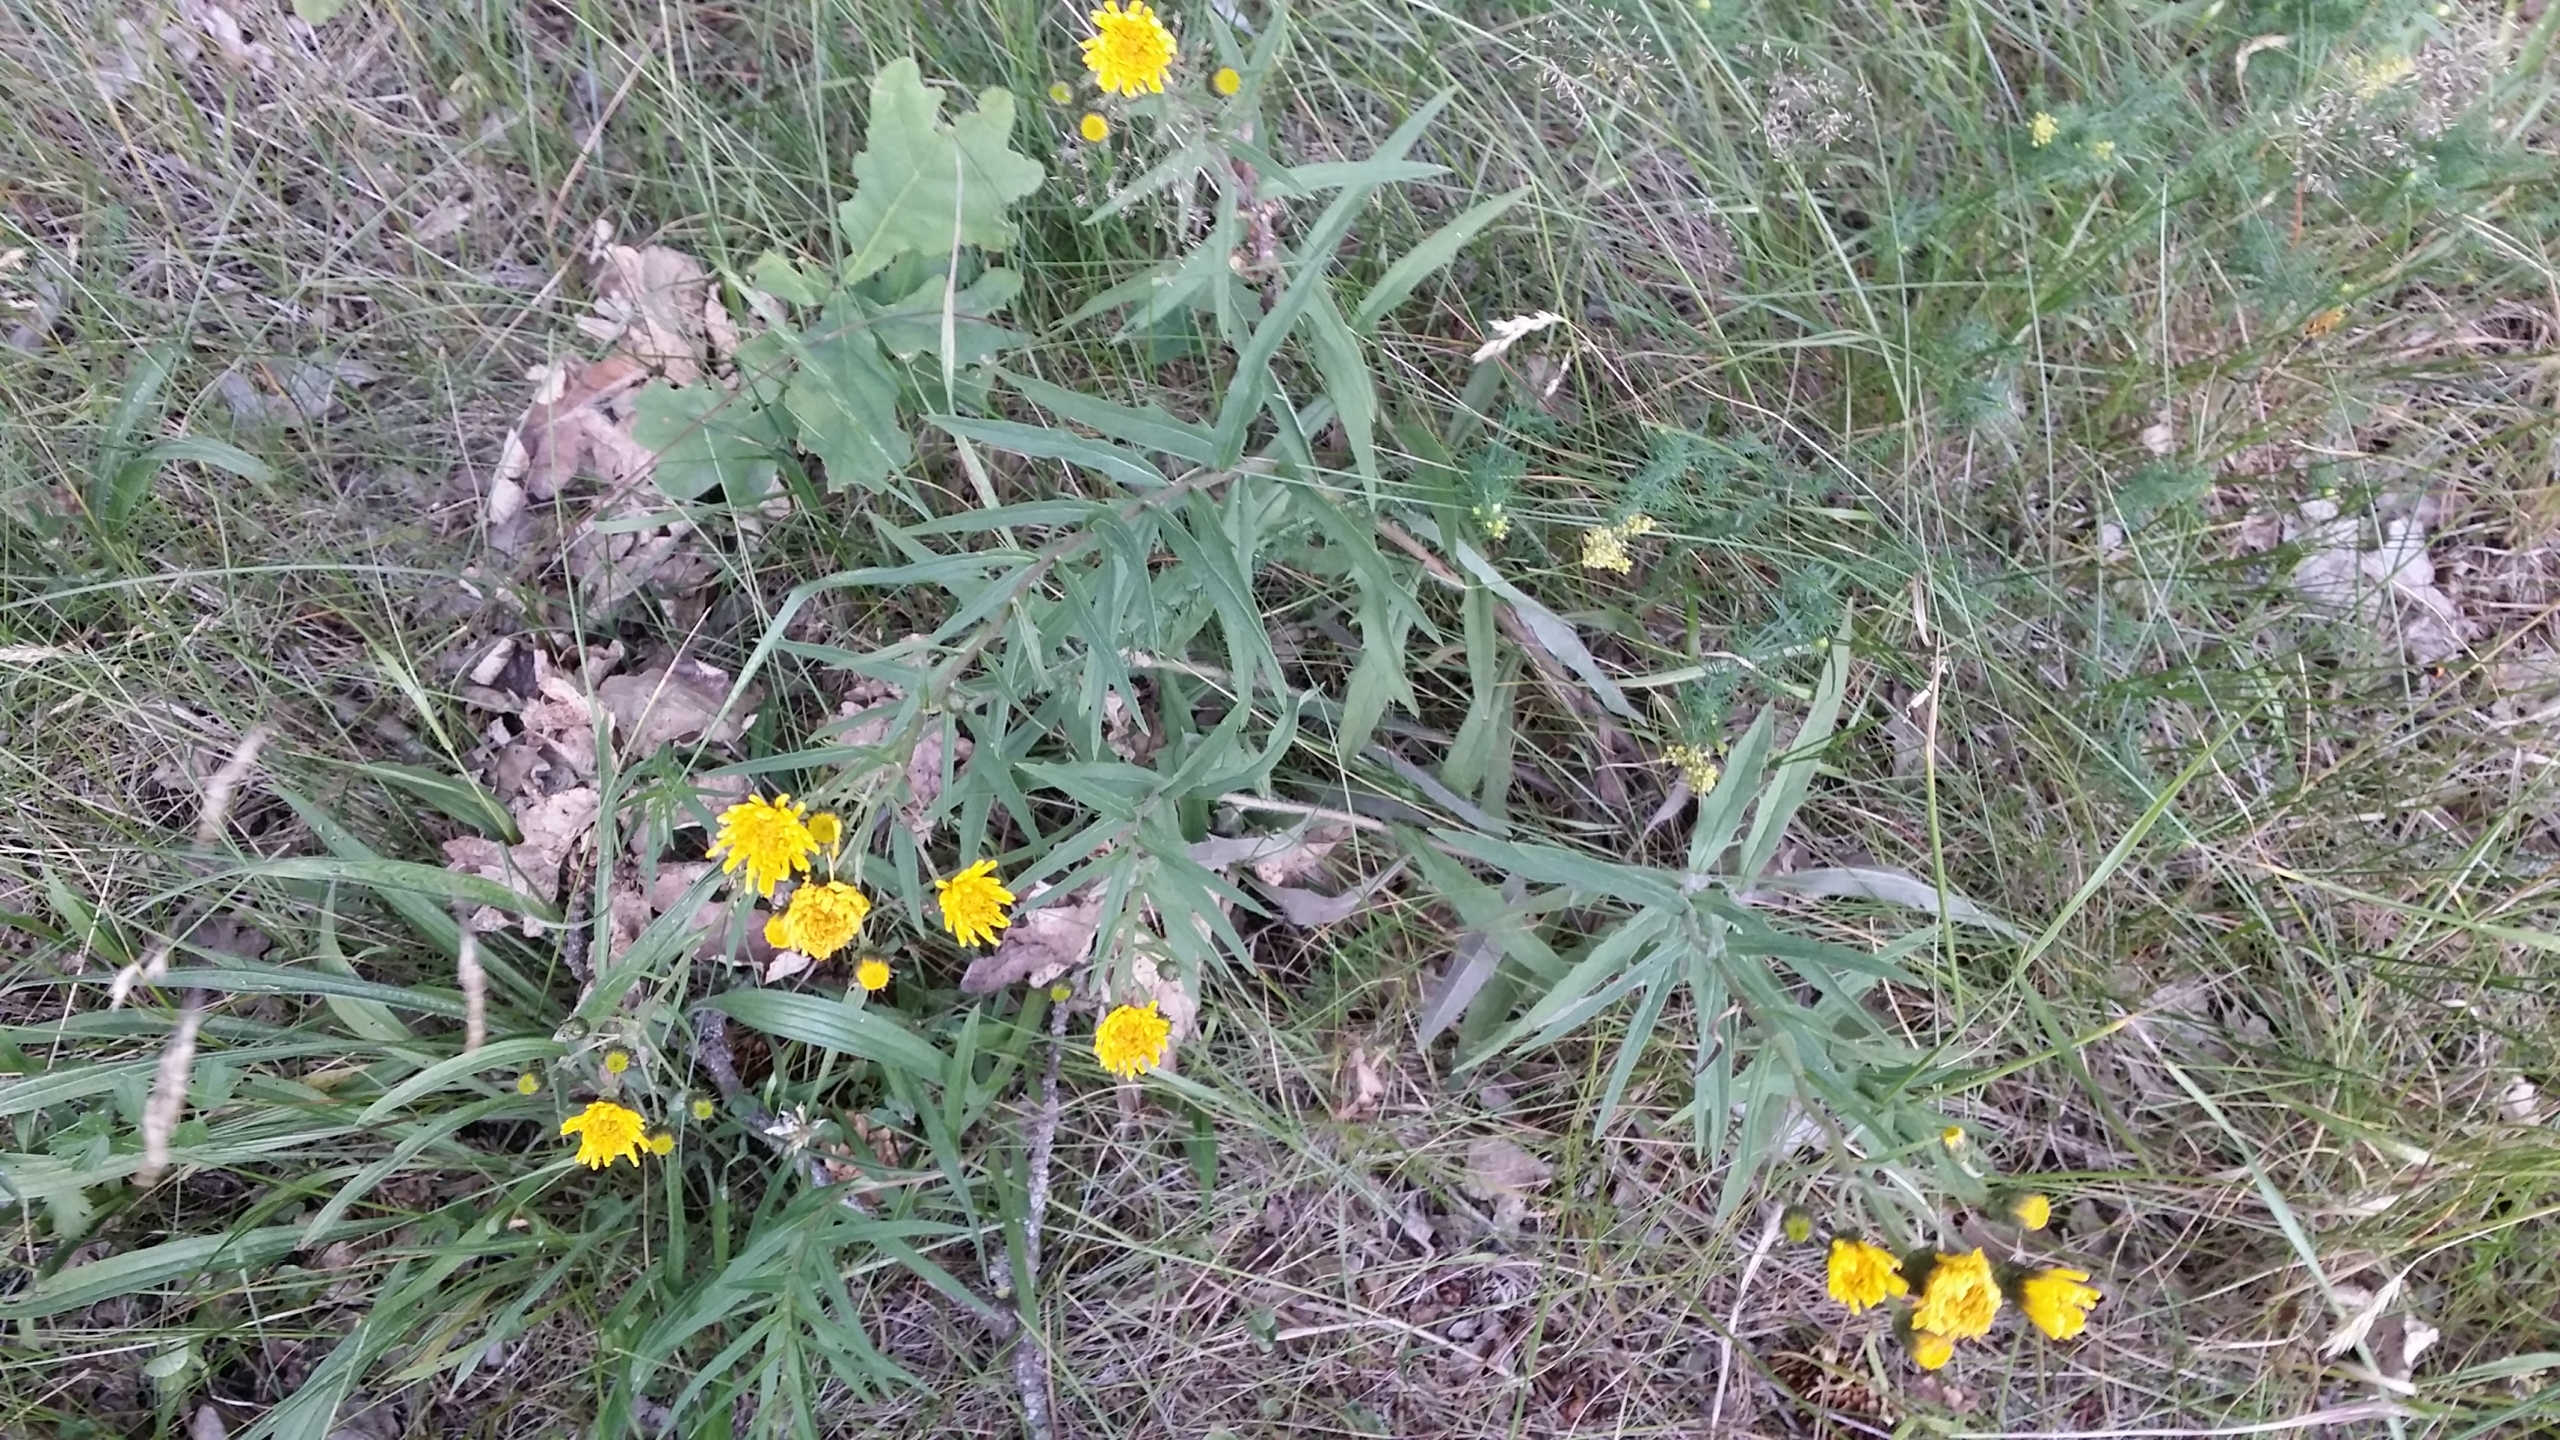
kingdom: Plantae
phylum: Tracheophyta
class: Magnoliopsida
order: Asterales
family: Asteraceae
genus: Hieracium
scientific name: Hieracium umbellatum
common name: Smalbladet høgeurt
